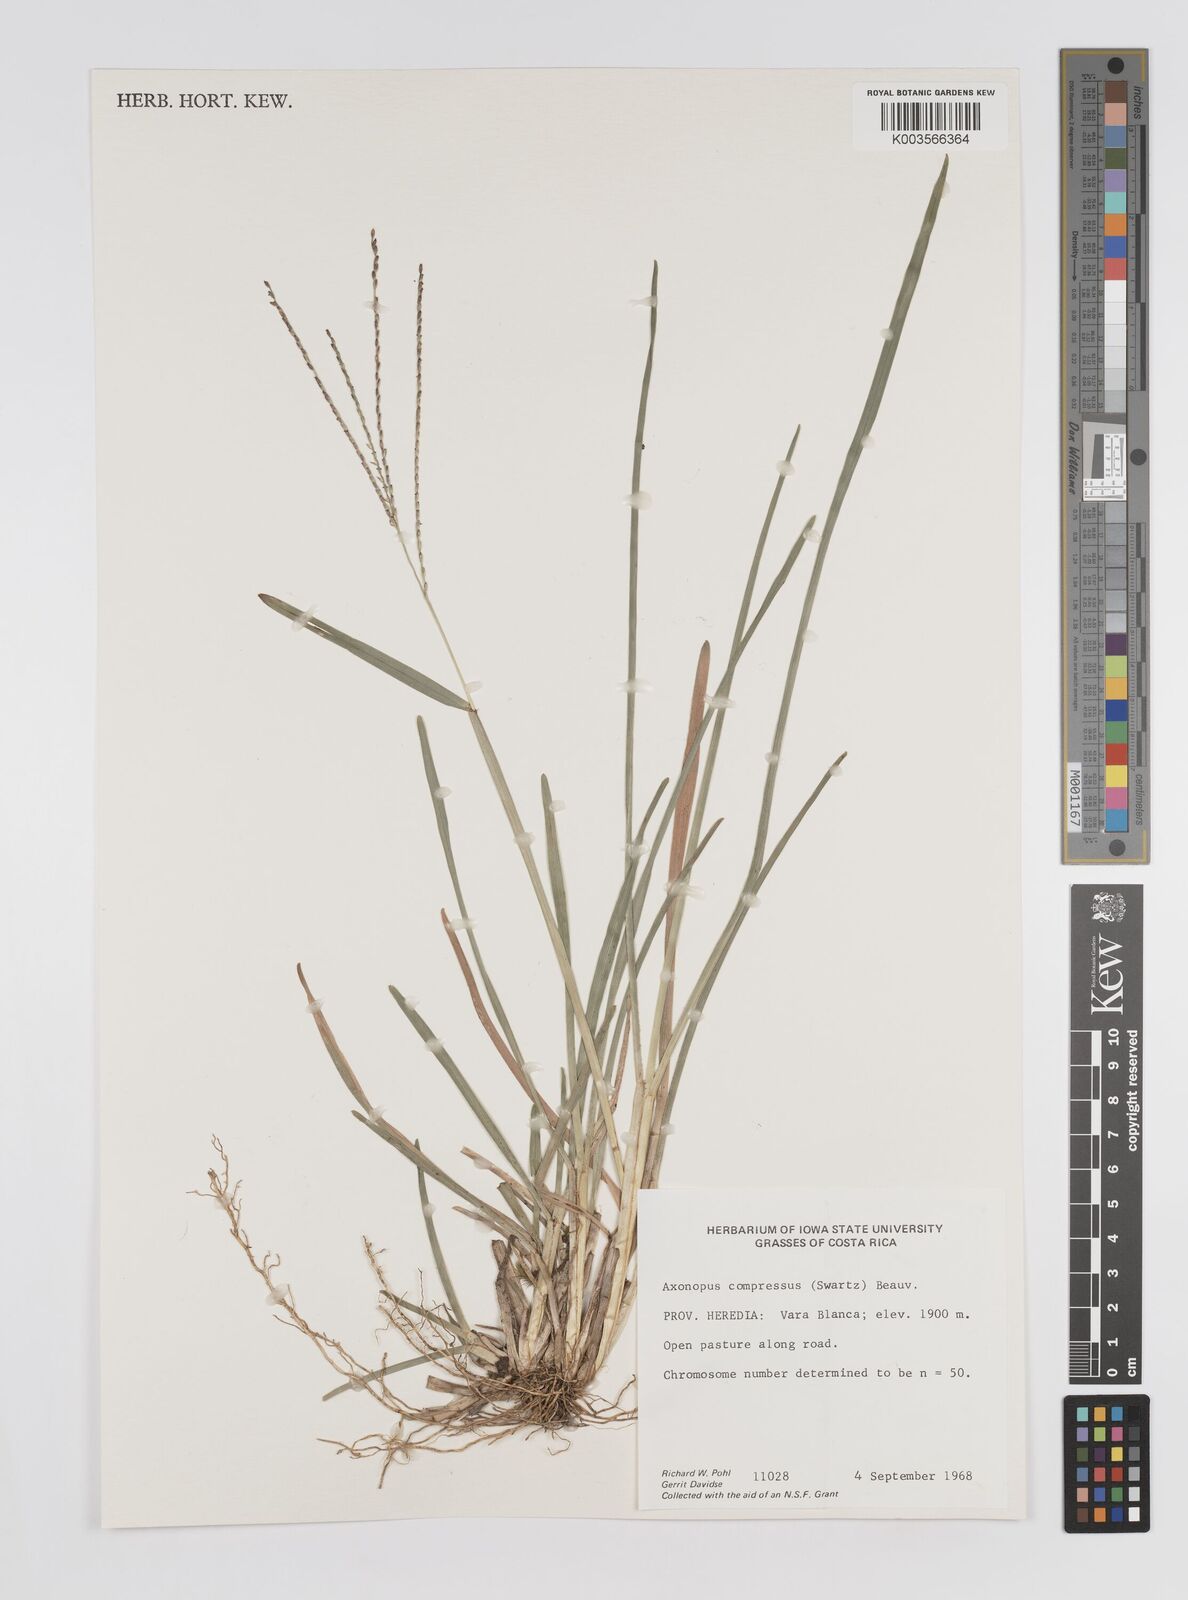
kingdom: Plantae
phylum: Tracheophyta
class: Liliopsida
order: Poales
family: Poaceae
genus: Axonopus
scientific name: Axonopus compressus
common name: American carpet grass
